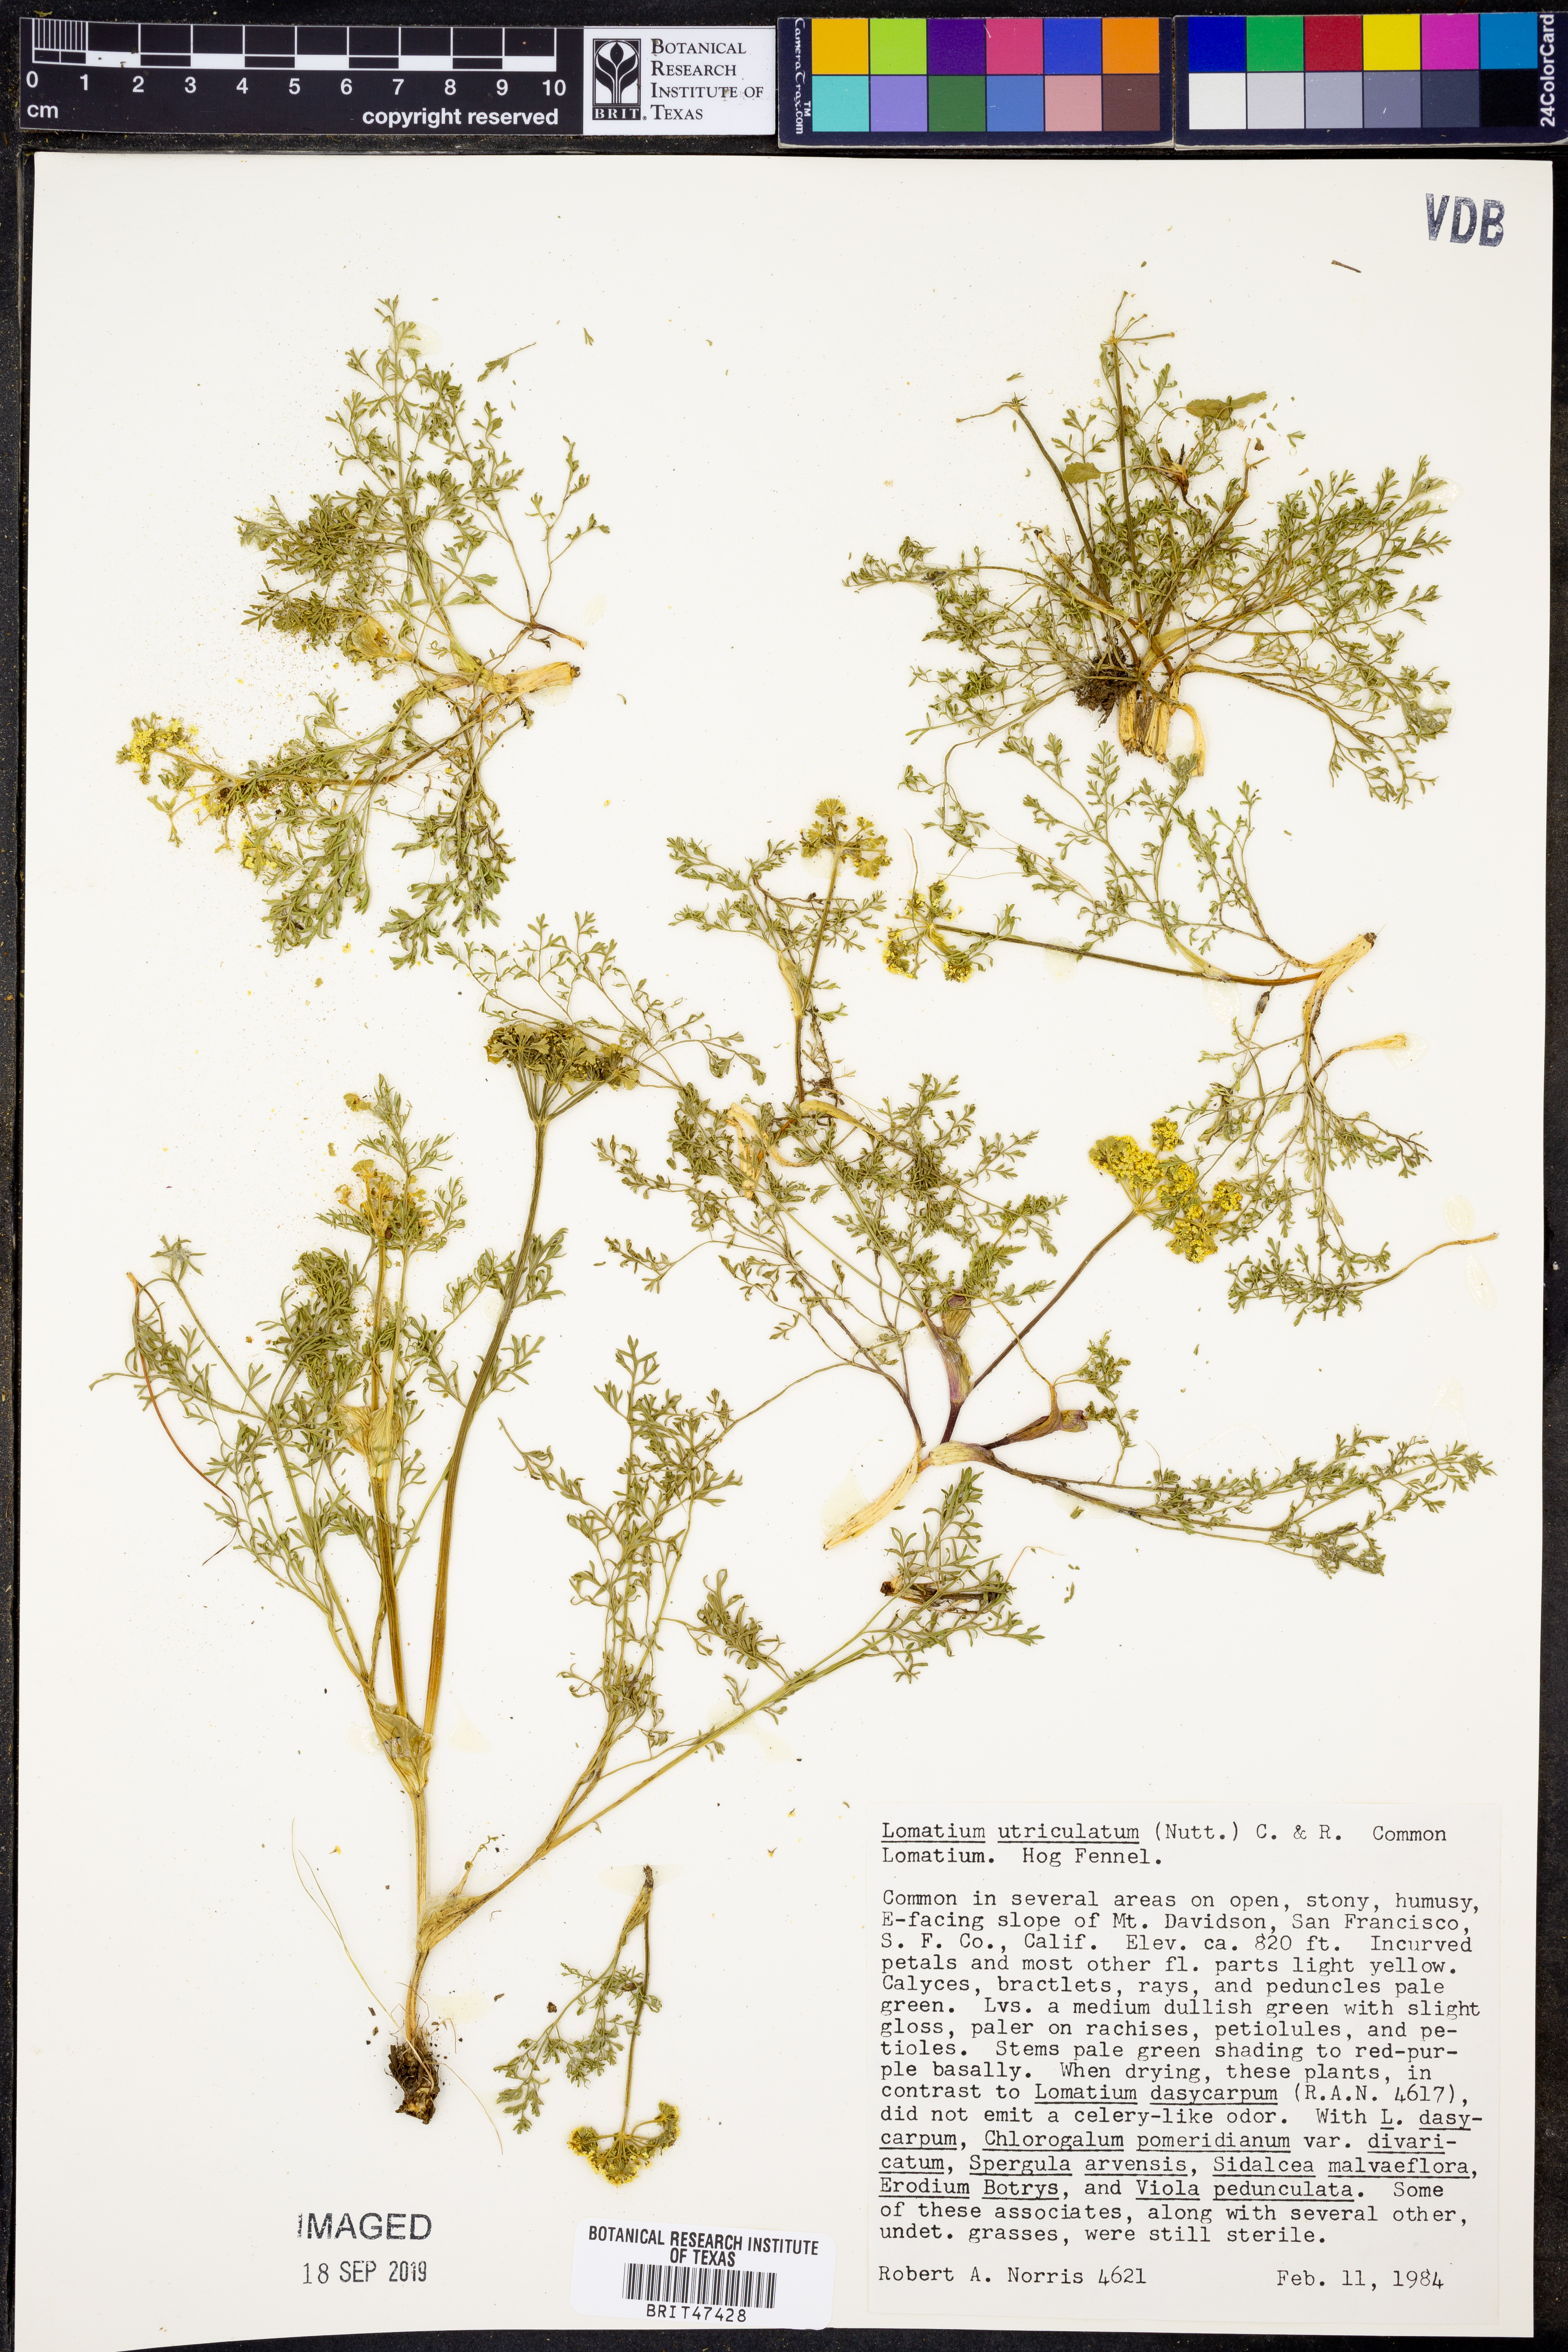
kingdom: Plantae
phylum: Tracheophyta
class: Magnoliopsida
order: Apiales
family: Apiaceae
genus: Lomatium
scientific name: Lomatium utriculatum
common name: Fine-leaf desert-parsley
